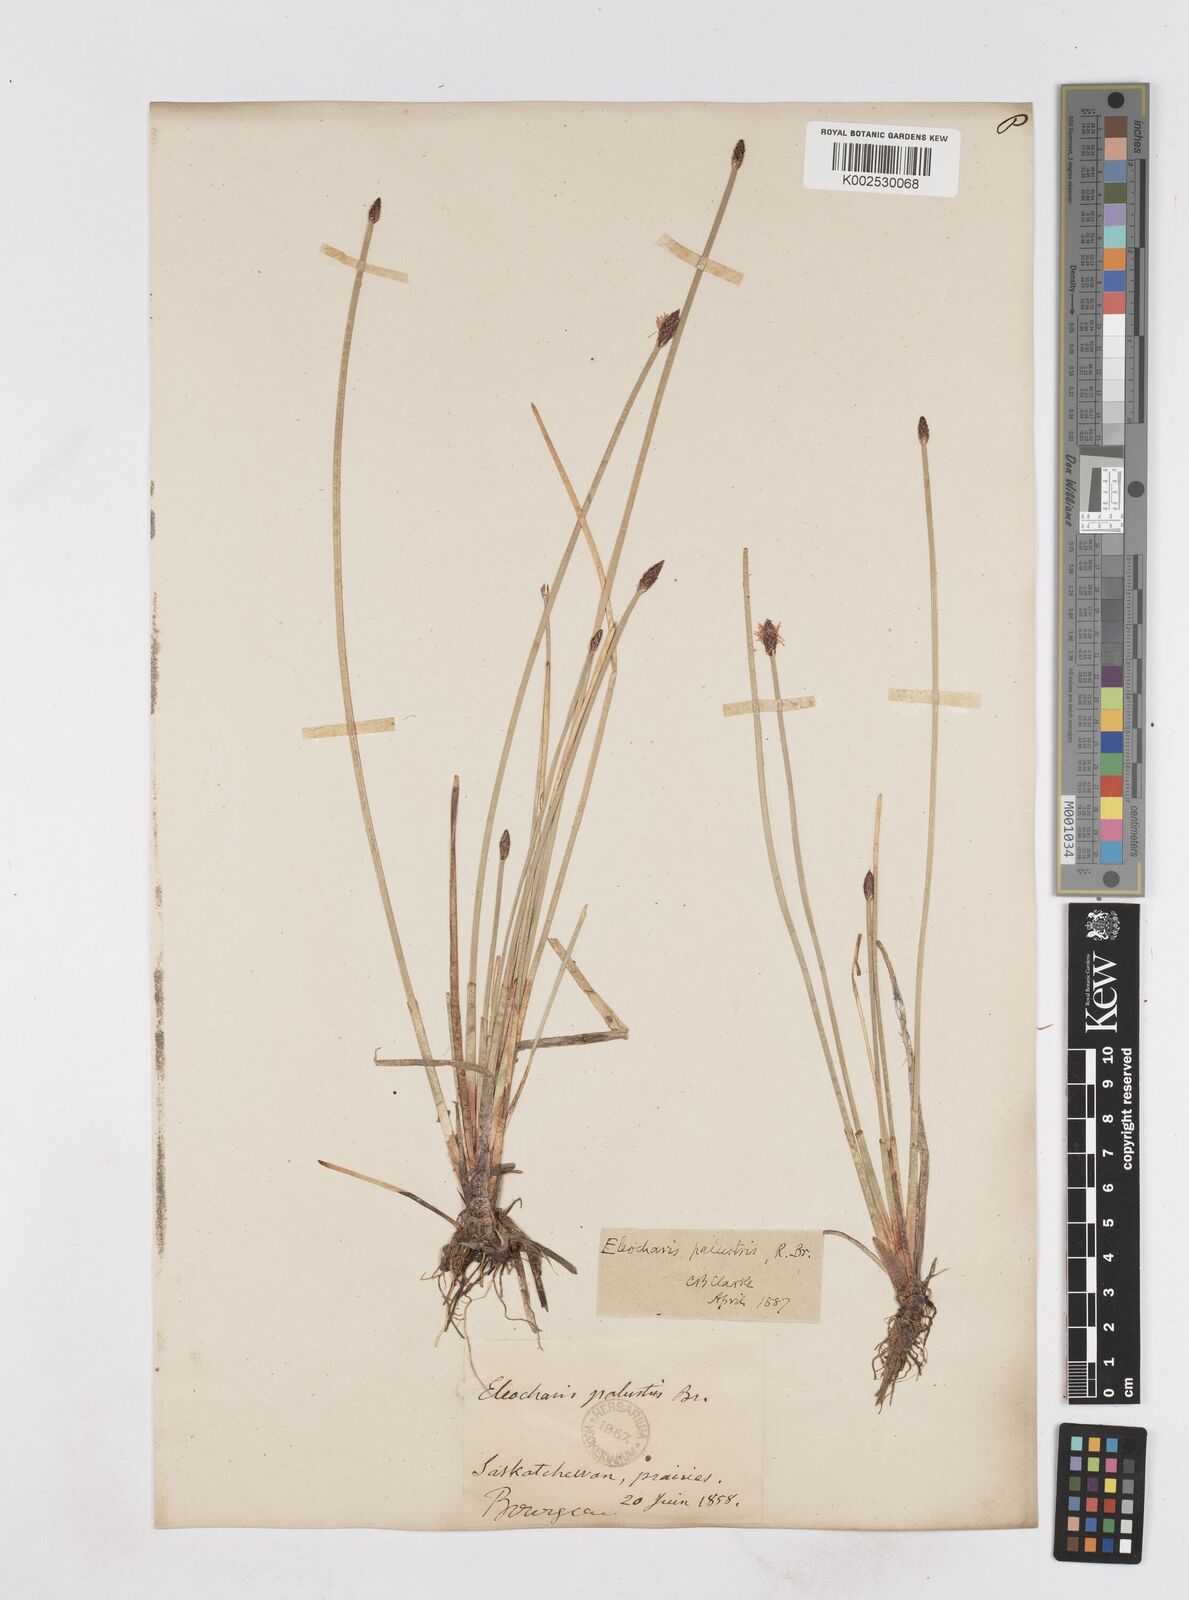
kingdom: Plantae
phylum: Tracheophyta
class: Liliopsida
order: Poales
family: Cyperaceae
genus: Eleocharis
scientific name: Eleocharis palustris
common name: Common spike-rush
